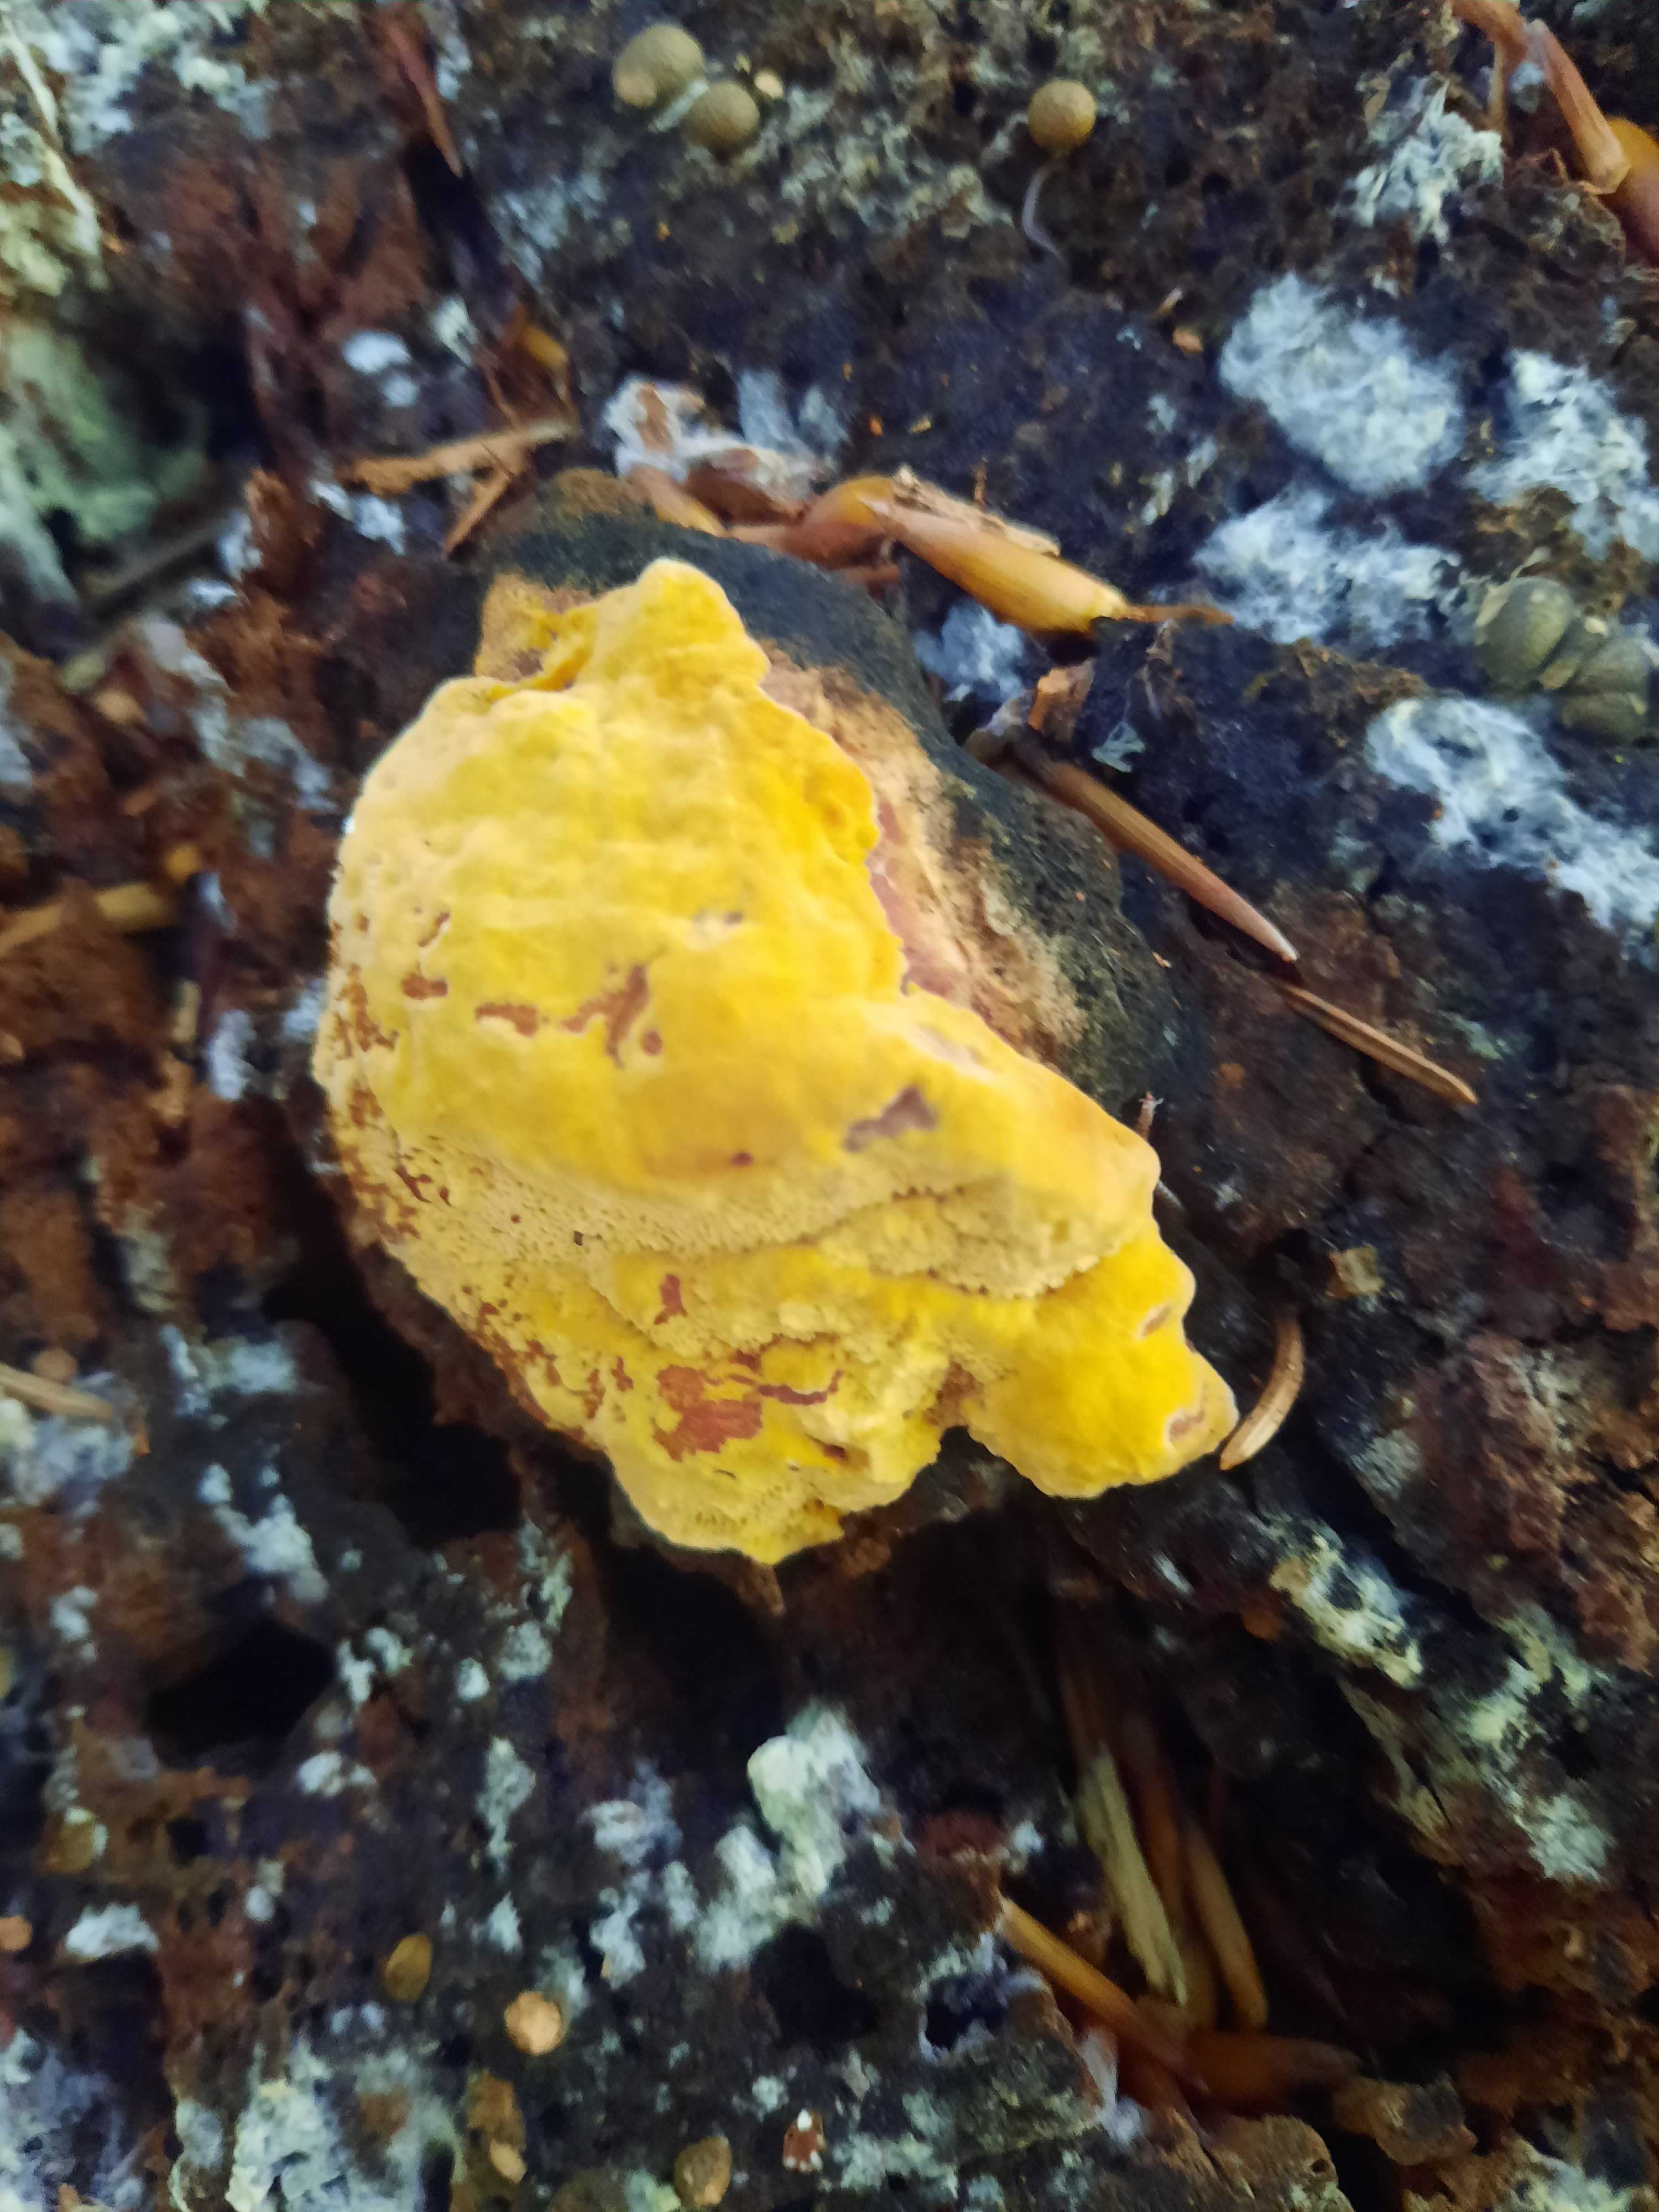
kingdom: Fungi
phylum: Basidiomycota
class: Agaricomycetes
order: Gloeophyllales
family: Gloeophyllaceae
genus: Gloeophyllum
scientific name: Gloeophyllum odoratum
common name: duftende korkhat
